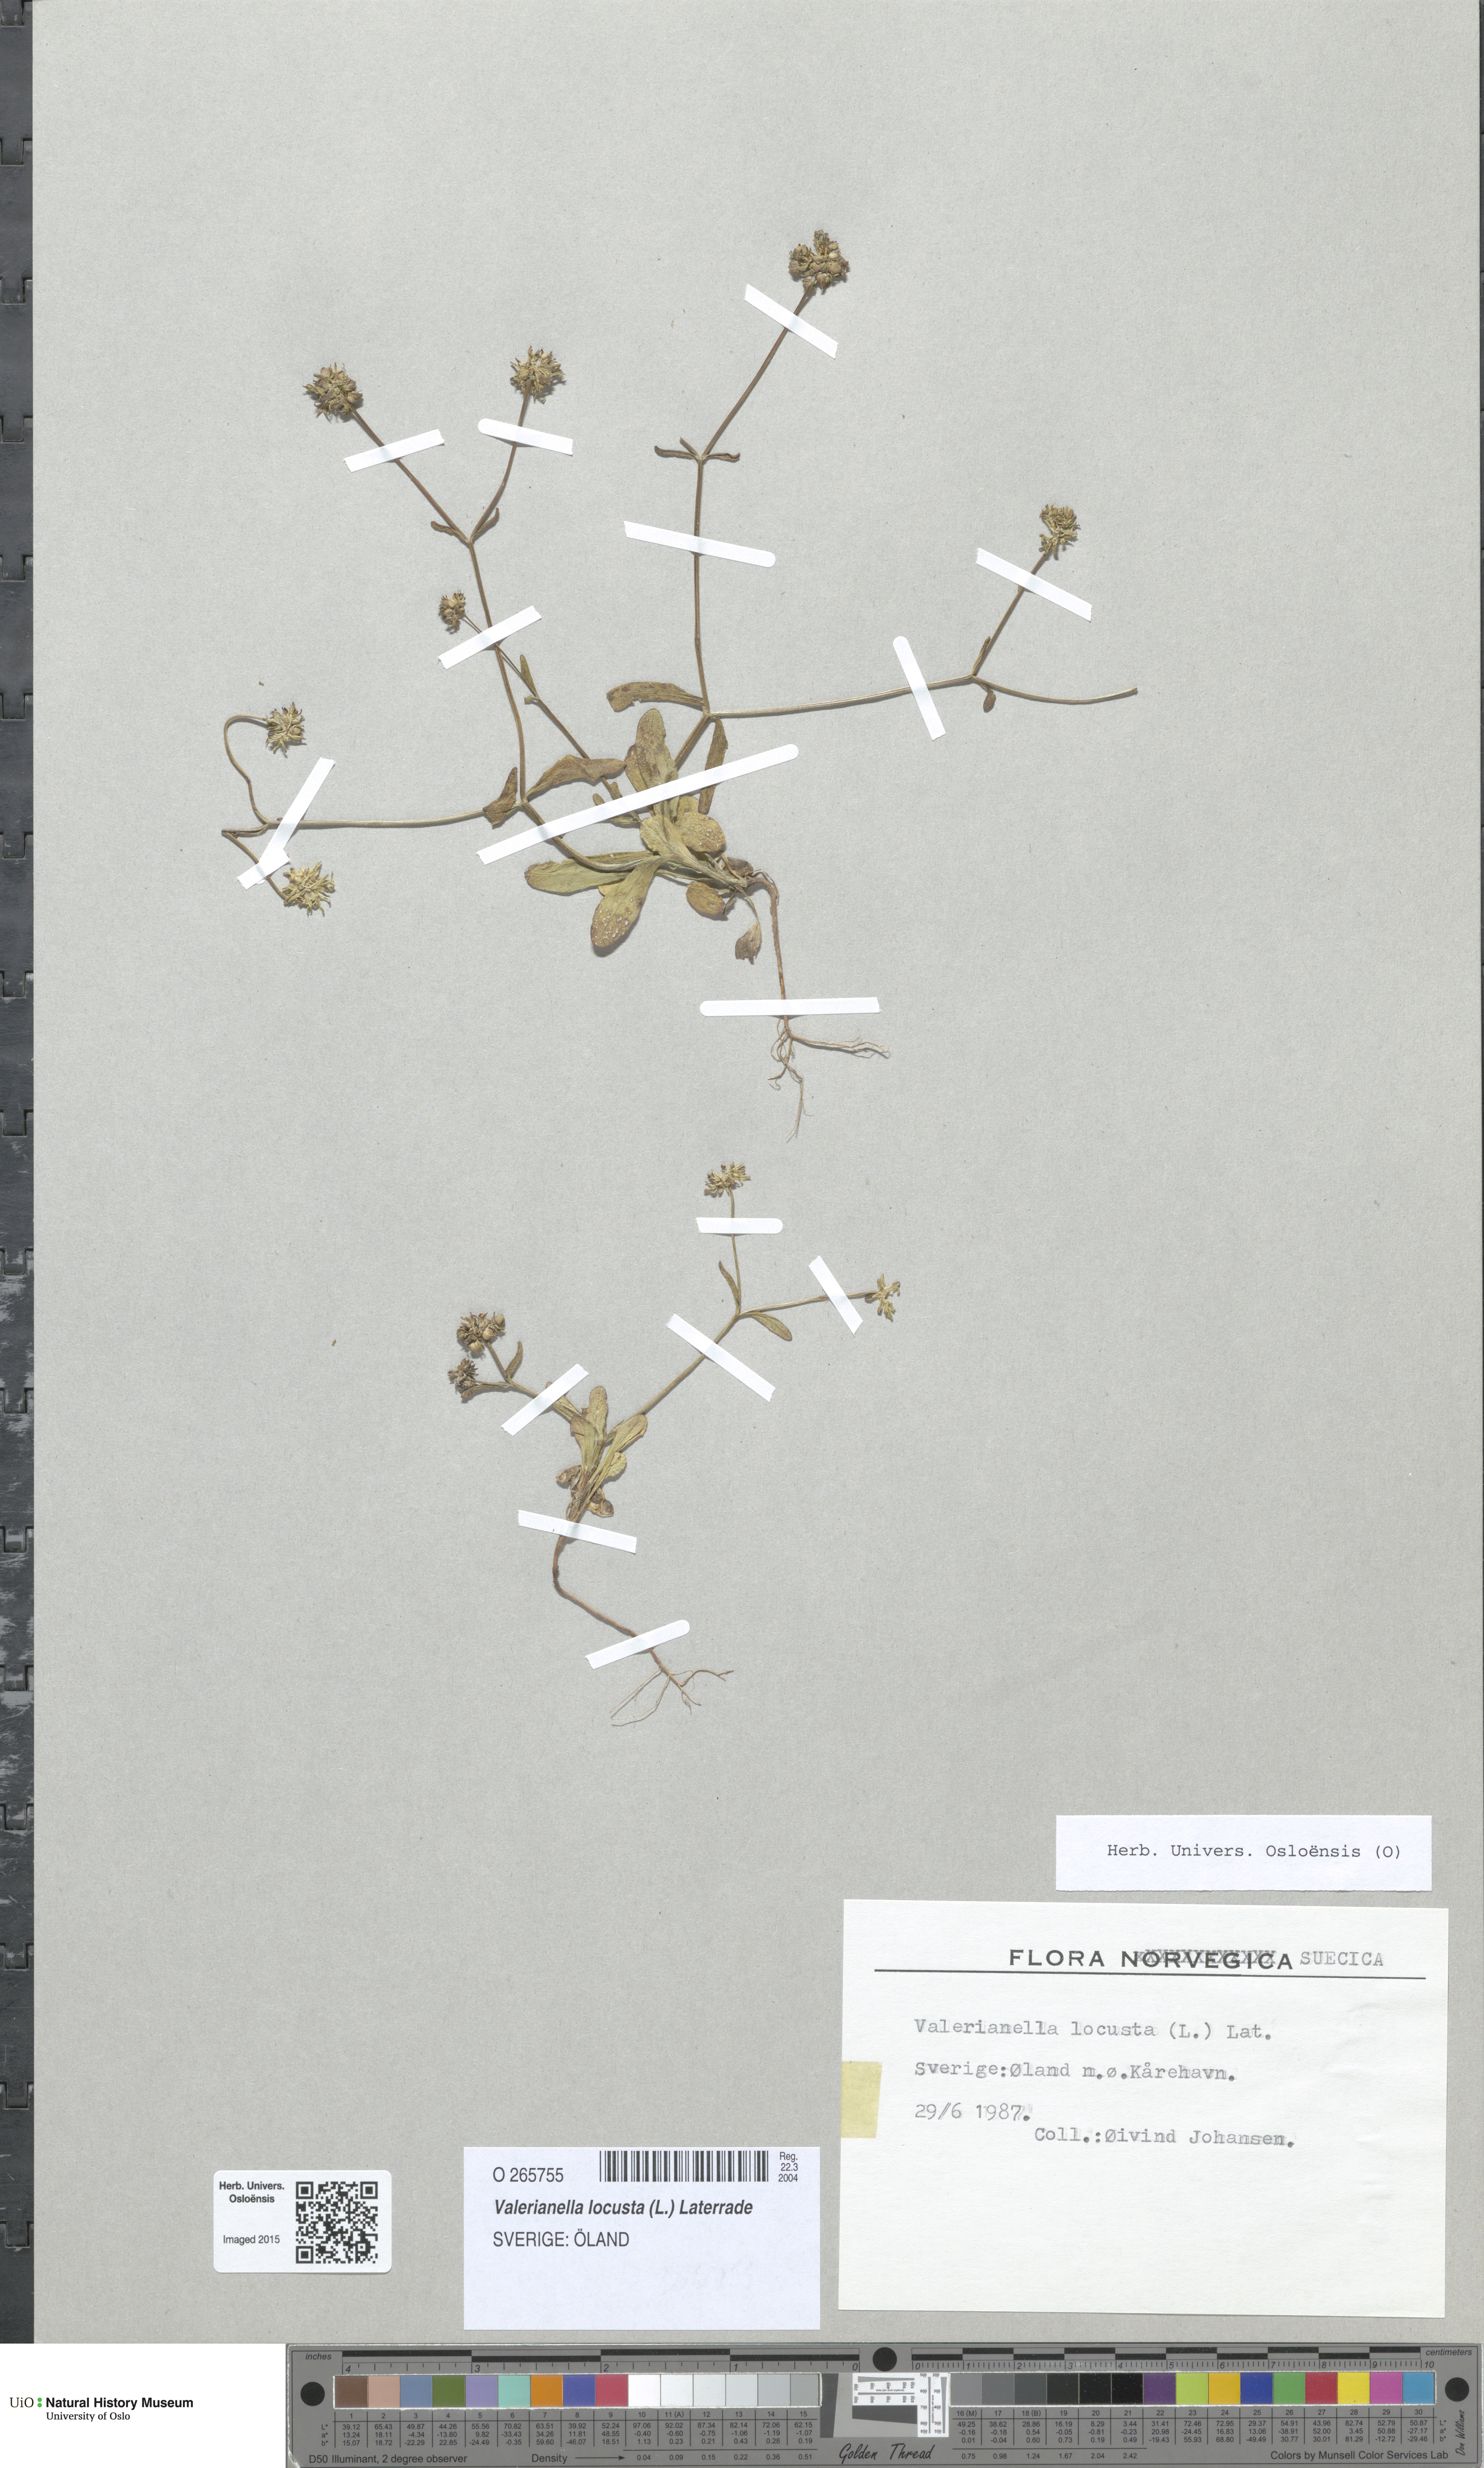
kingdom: Plantae
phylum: Tracheophyta
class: Magnoliopsida
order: Dipsacales
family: Caprifoliaceae
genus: Valerianella
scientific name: Valerianella locusta
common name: Common cornsalad
